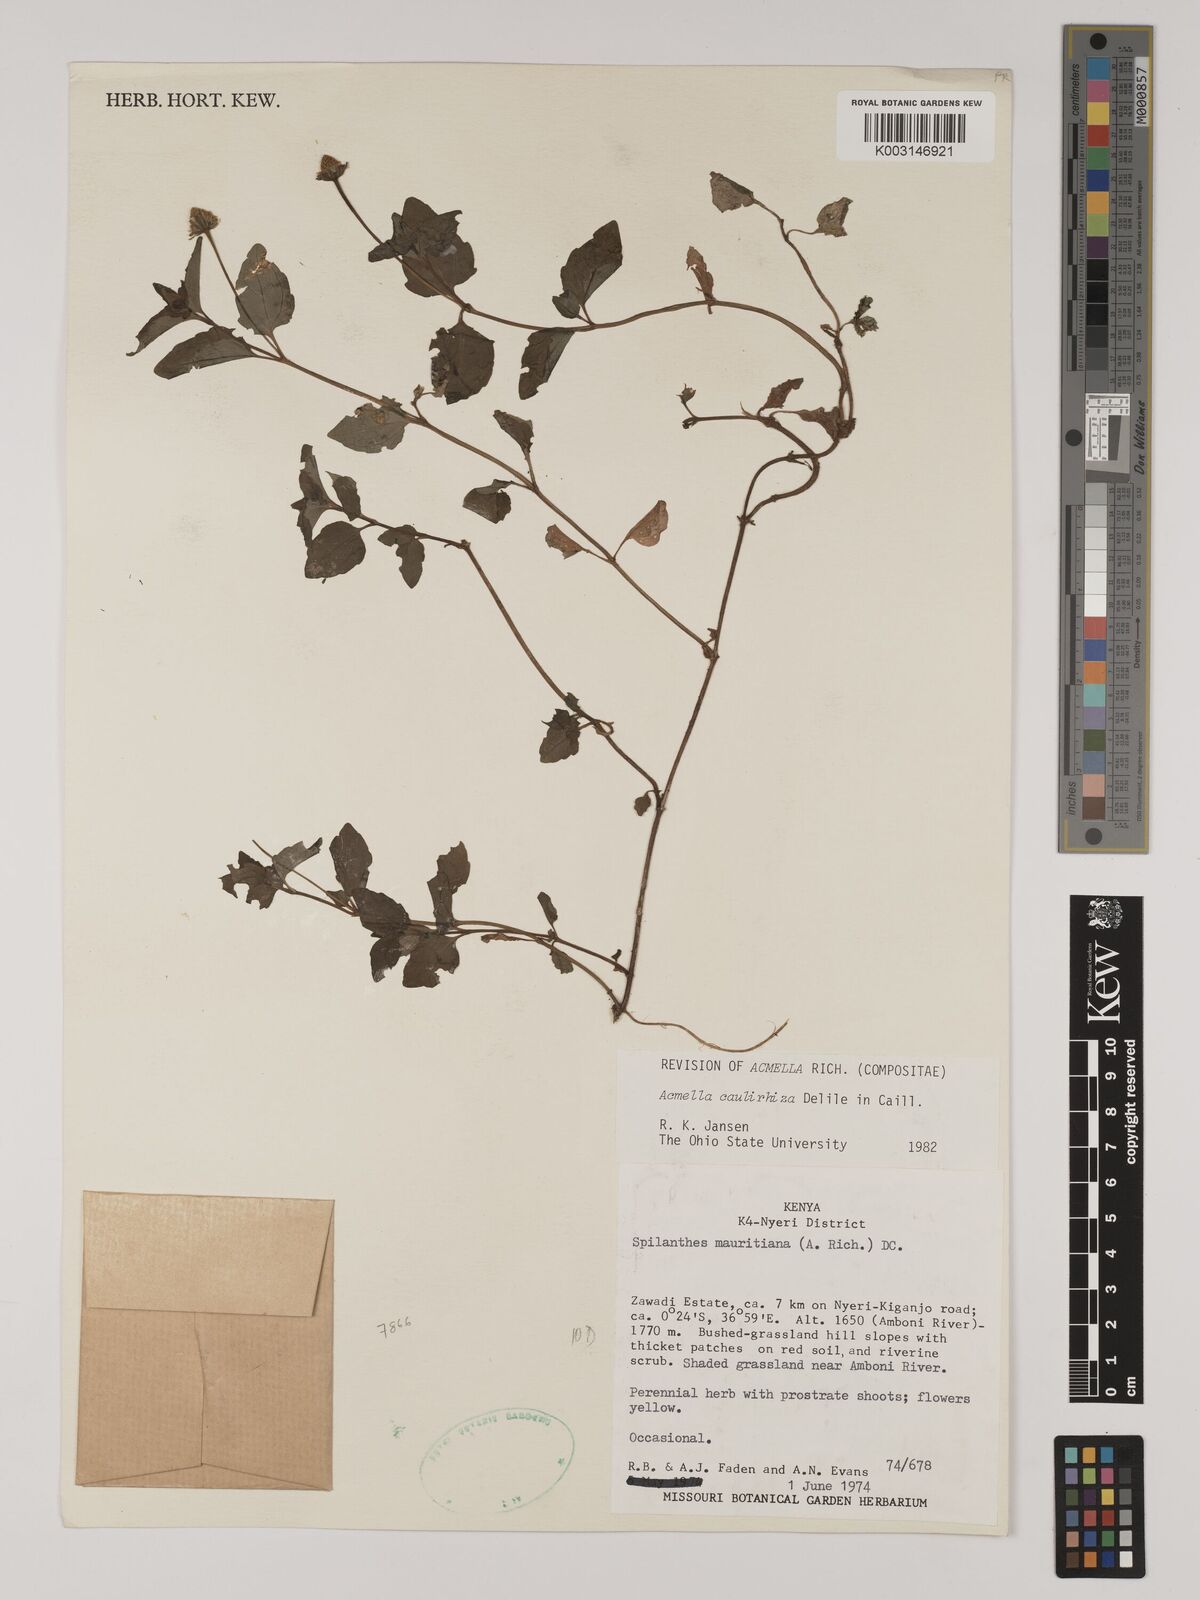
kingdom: Plantae
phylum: Tracheophyta
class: Magnoliopsida
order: Asterales
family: Asteraceae
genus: Acmella
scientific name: Acmella caulirhiza
